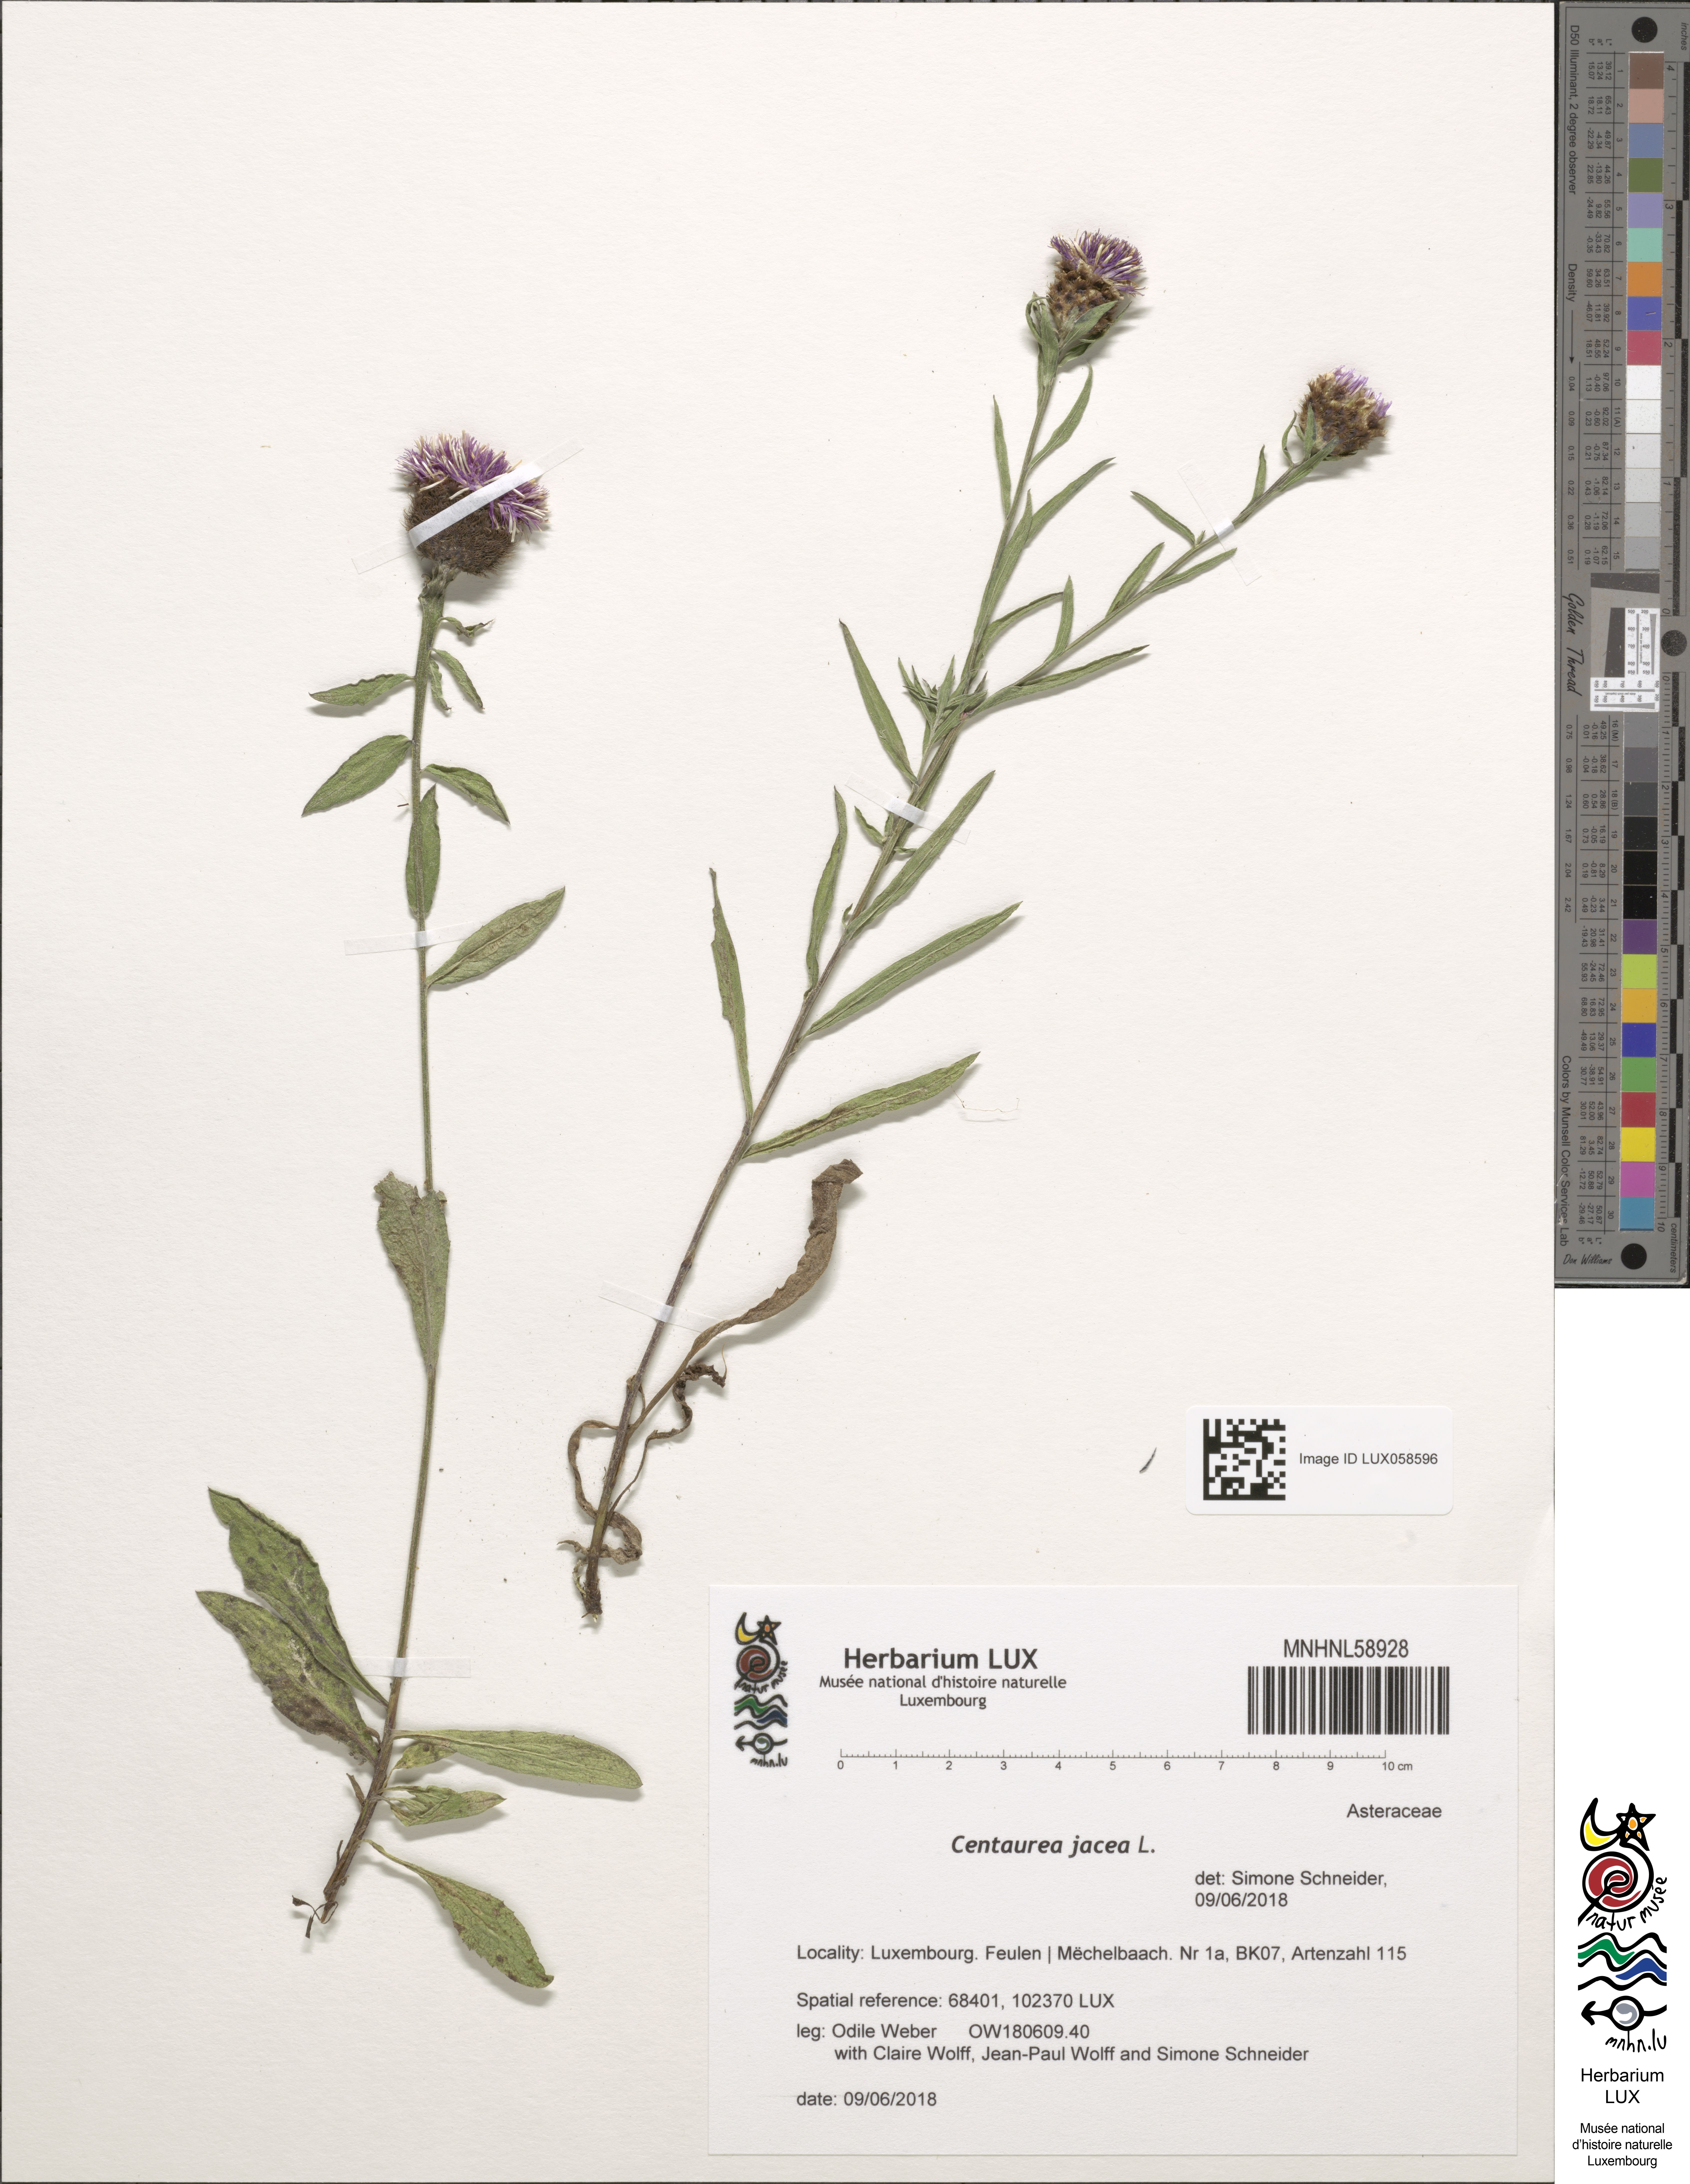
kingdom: Plantae
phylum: Tracheophyta
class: Magnoliopsida
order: Asterales
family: Asteraceae
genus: Centaurea
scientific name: Centaurea jacea
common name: Brown knapweed
